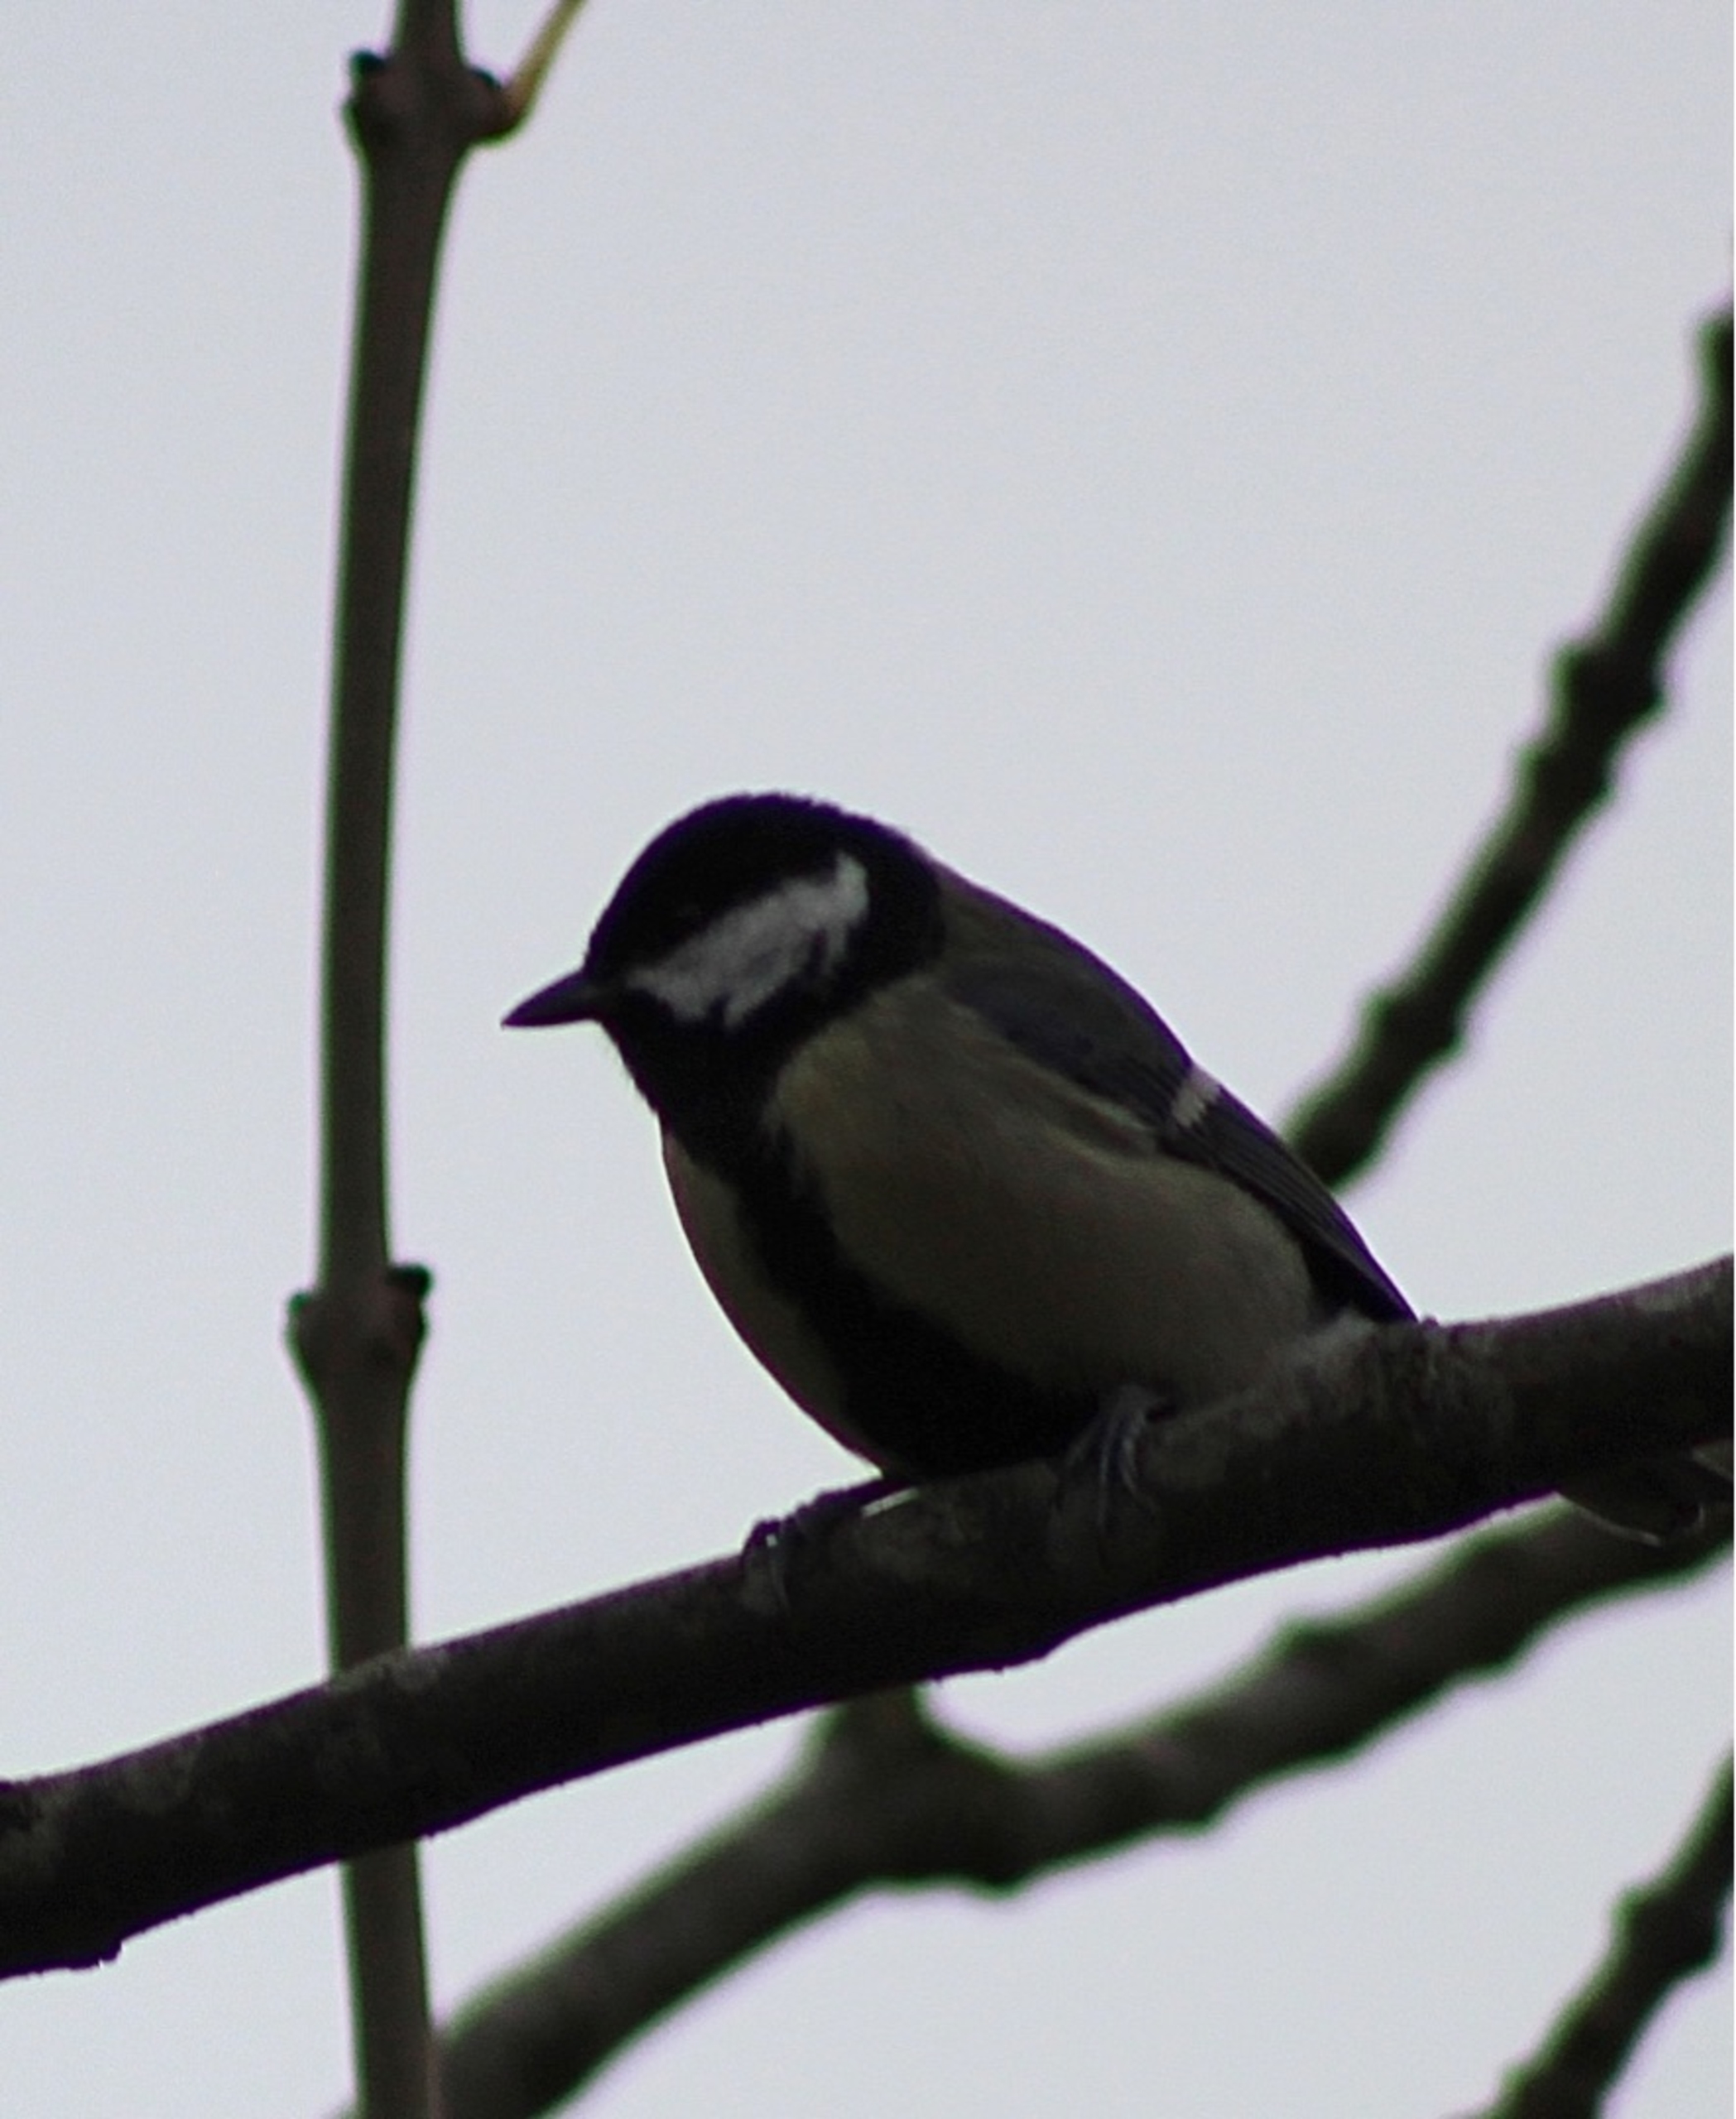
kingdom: Animalia
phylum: Chordata
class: Aves
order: Passeriformes
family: Paridae
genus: Parus
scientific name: Parus major
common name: Musvit
